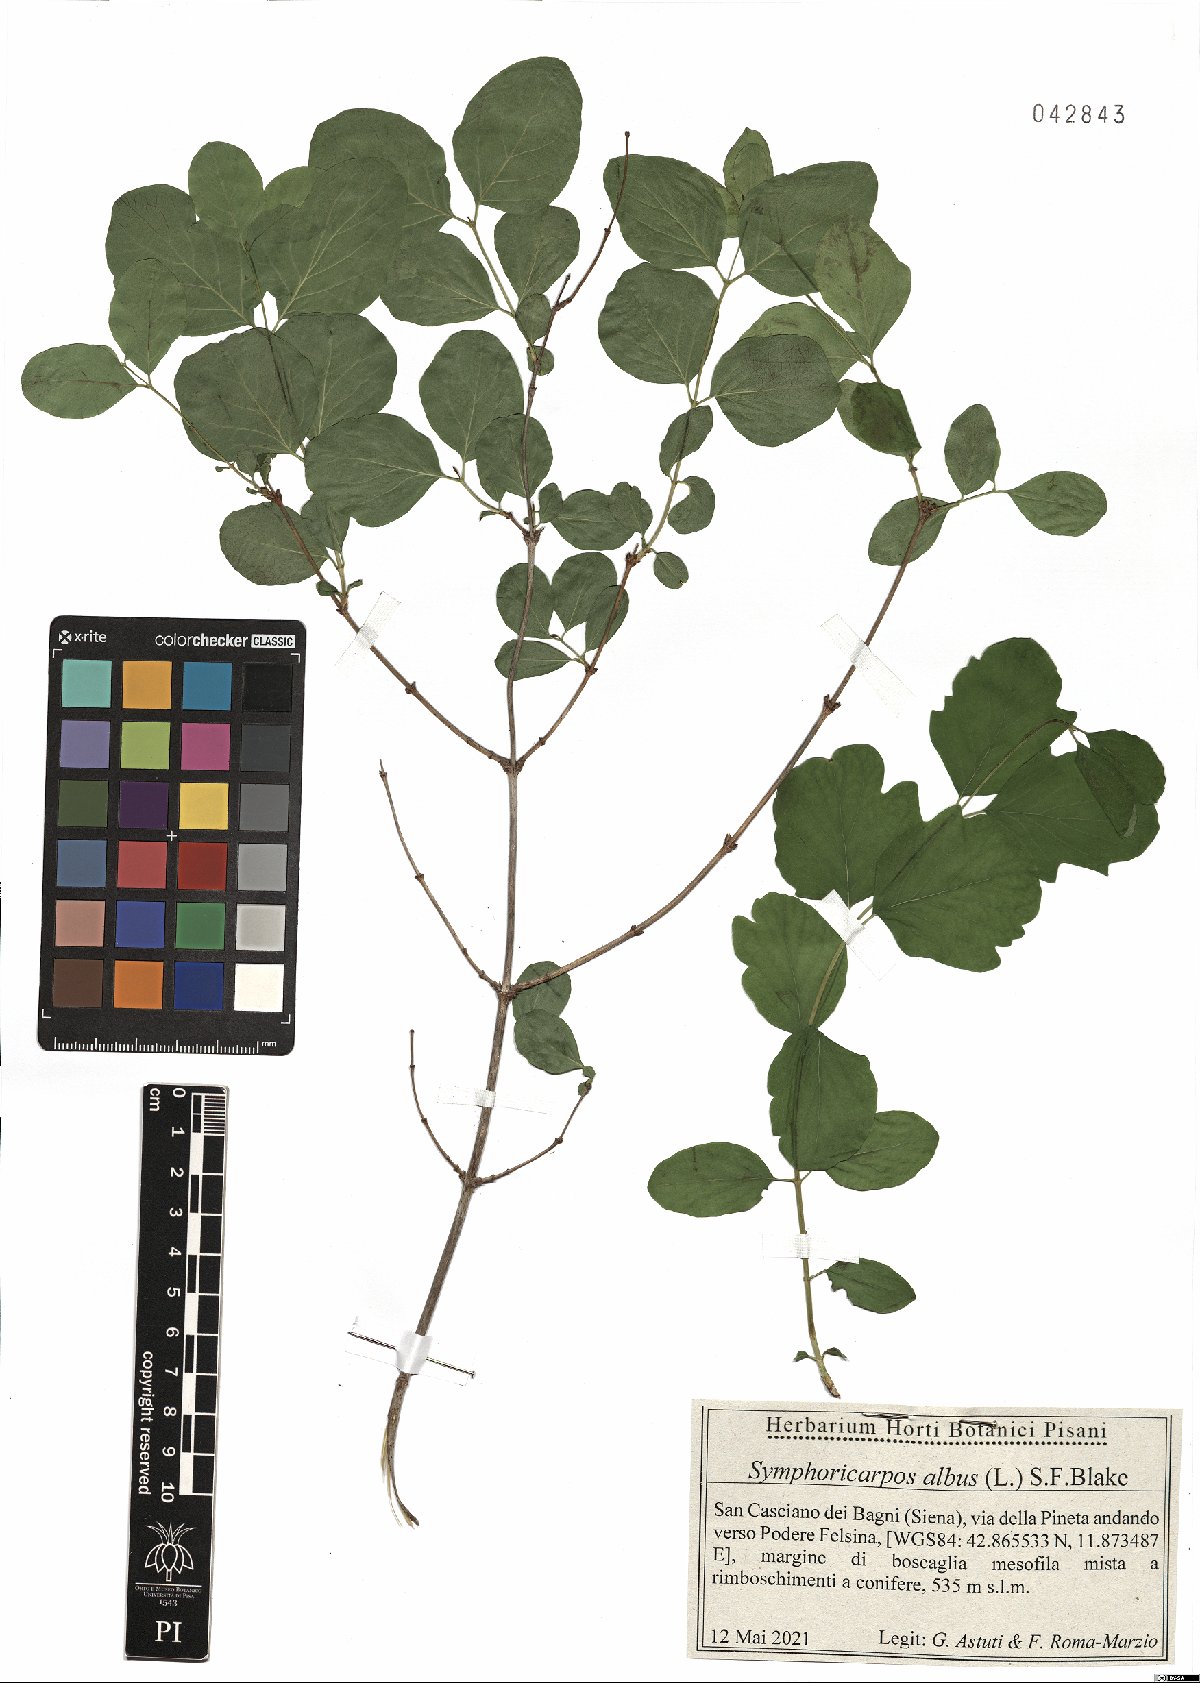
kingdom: Plantae
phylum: Tracheophyta
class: Magnoliopsida
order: Dipsacales
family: Caprifoliaceae
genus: Symphoricarpos
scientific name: Symphoricarpos albus
